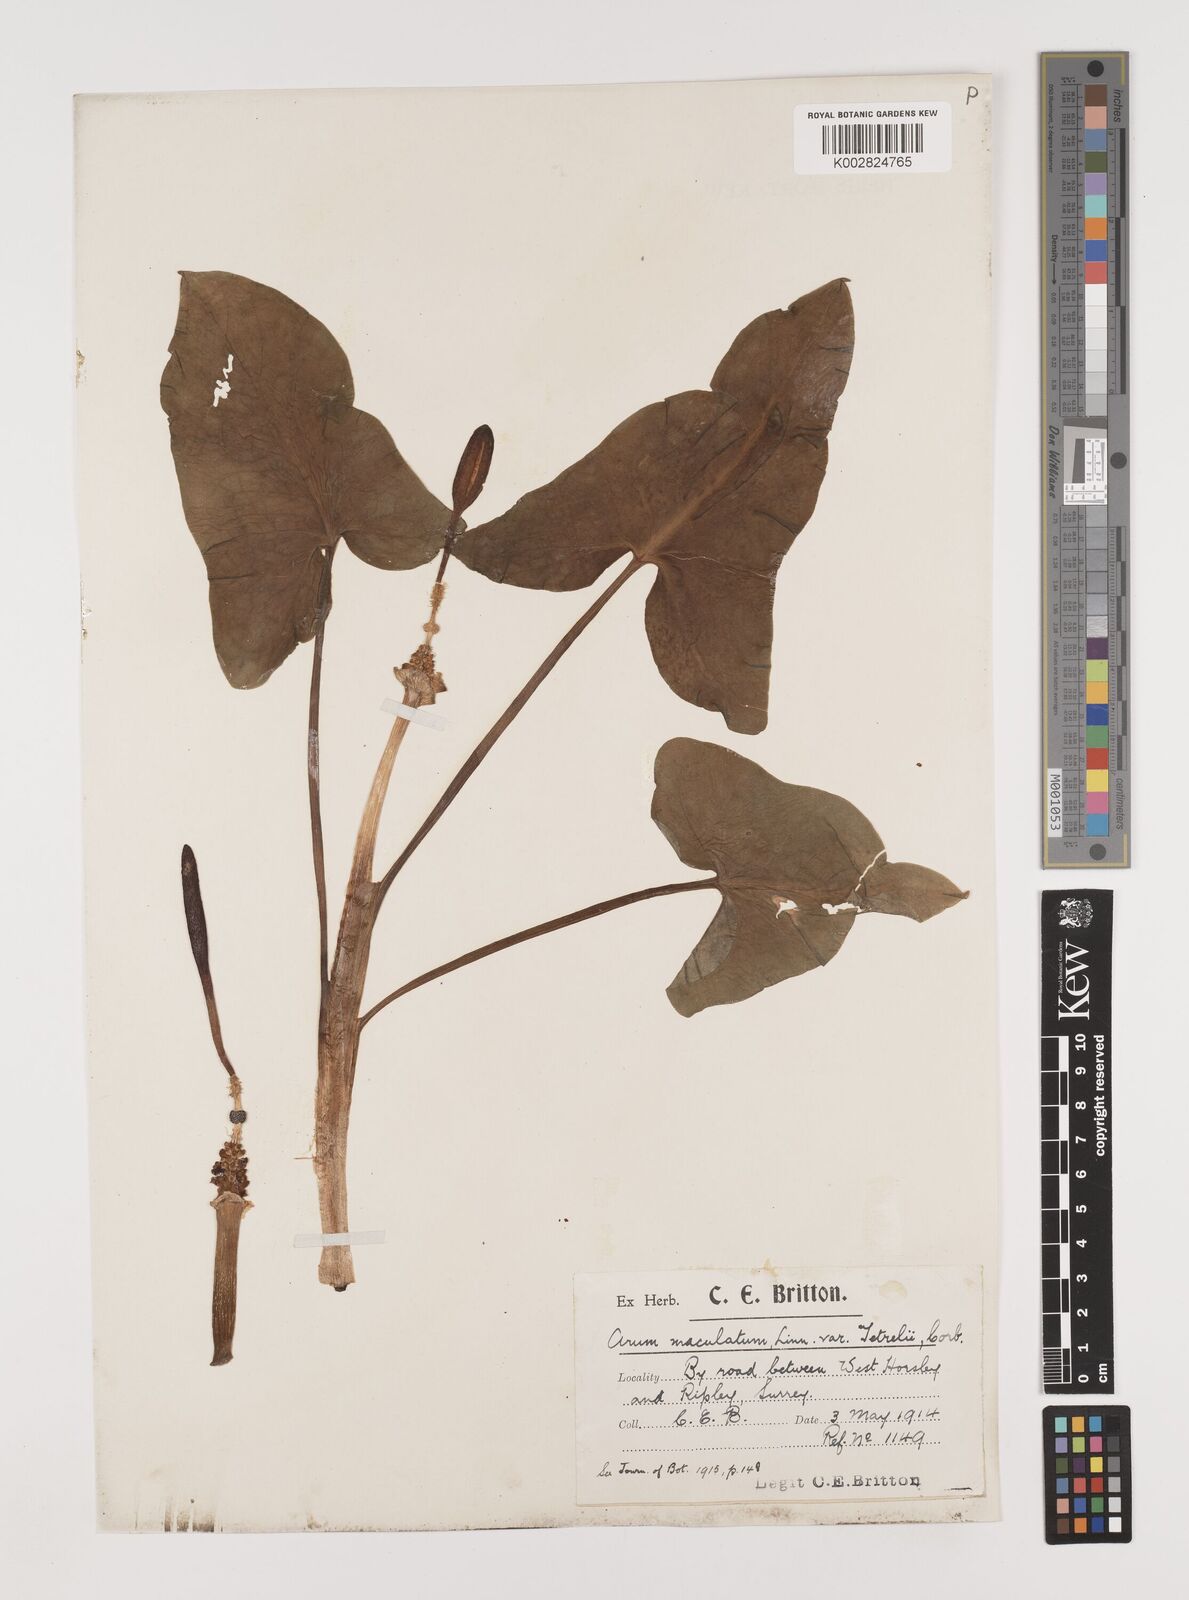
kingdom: Plantae
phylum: Tracheophyta
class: Liliopsida
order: Alismatales
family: Araceae
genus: Arum
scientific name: Arum maculatum
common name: Lords-and-ladies
